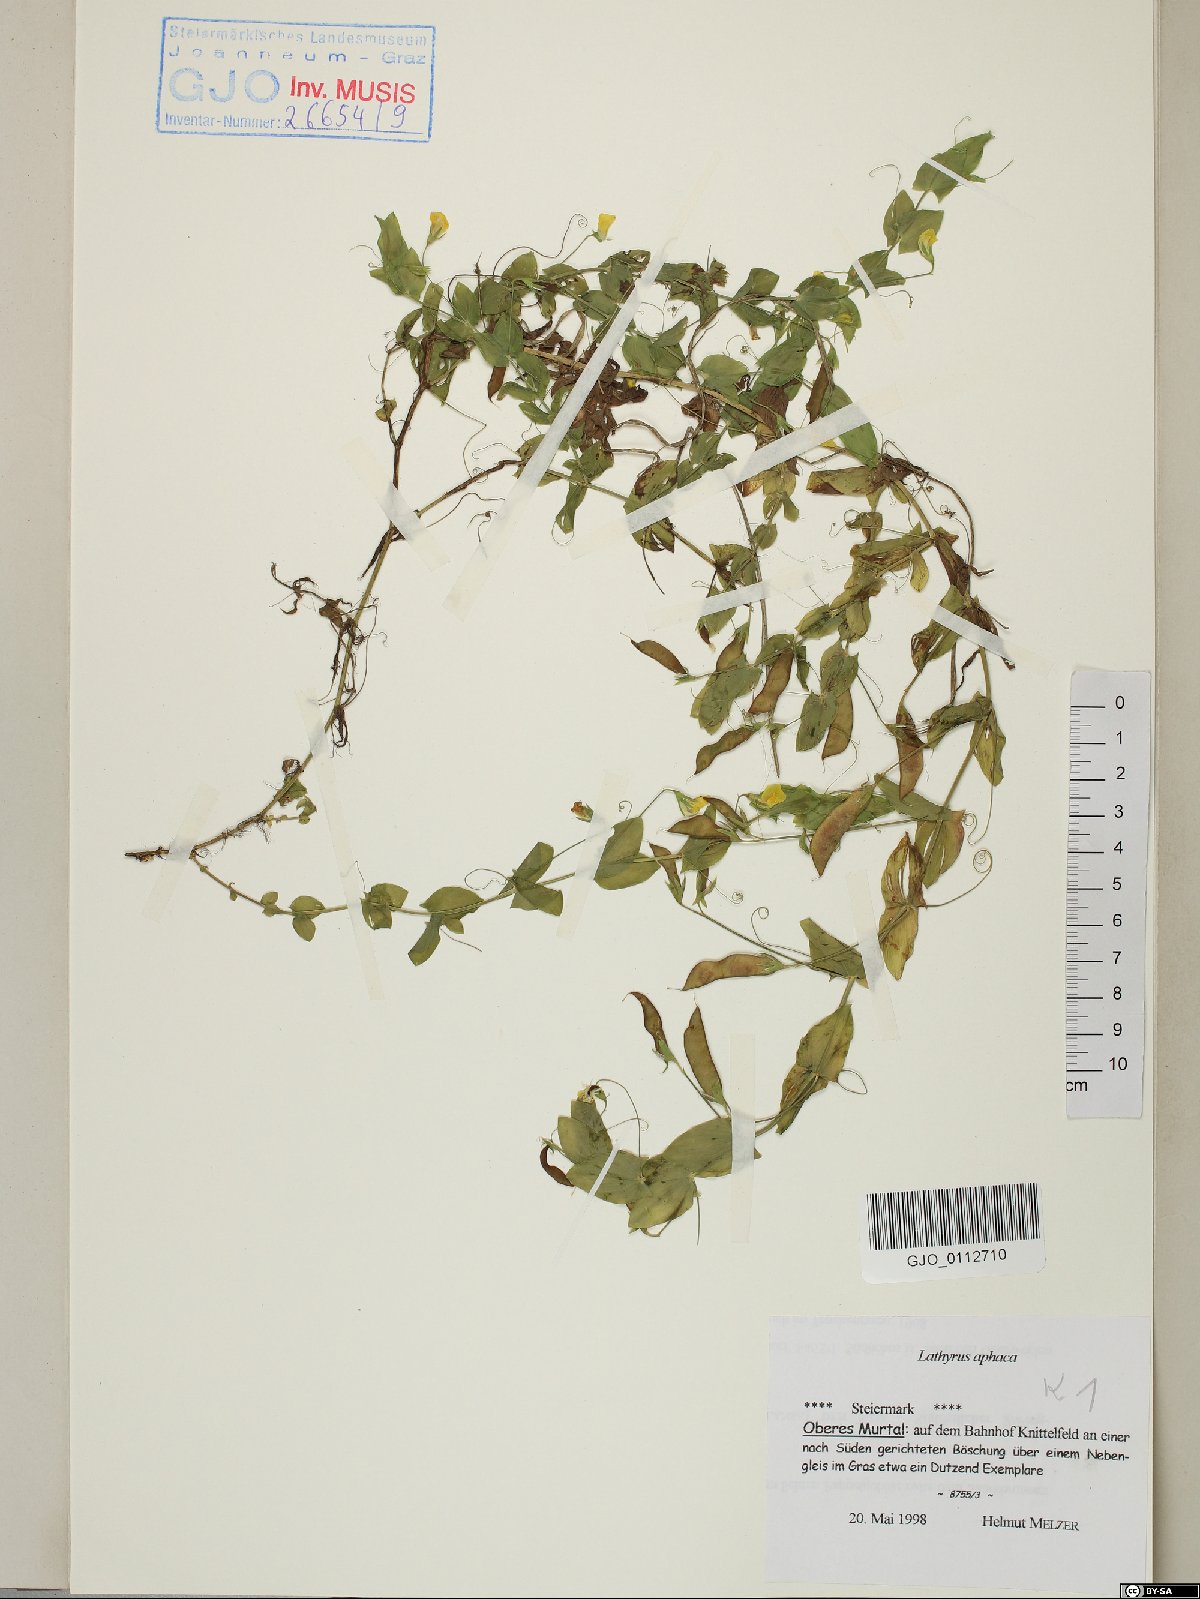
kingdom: Plantae
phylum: Tracheophyta
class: Magnoliopsida
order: Fabales
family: Fabaceae
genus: Lathyrus
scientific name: Lathyrus aphaca
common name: Yellow vetchling
